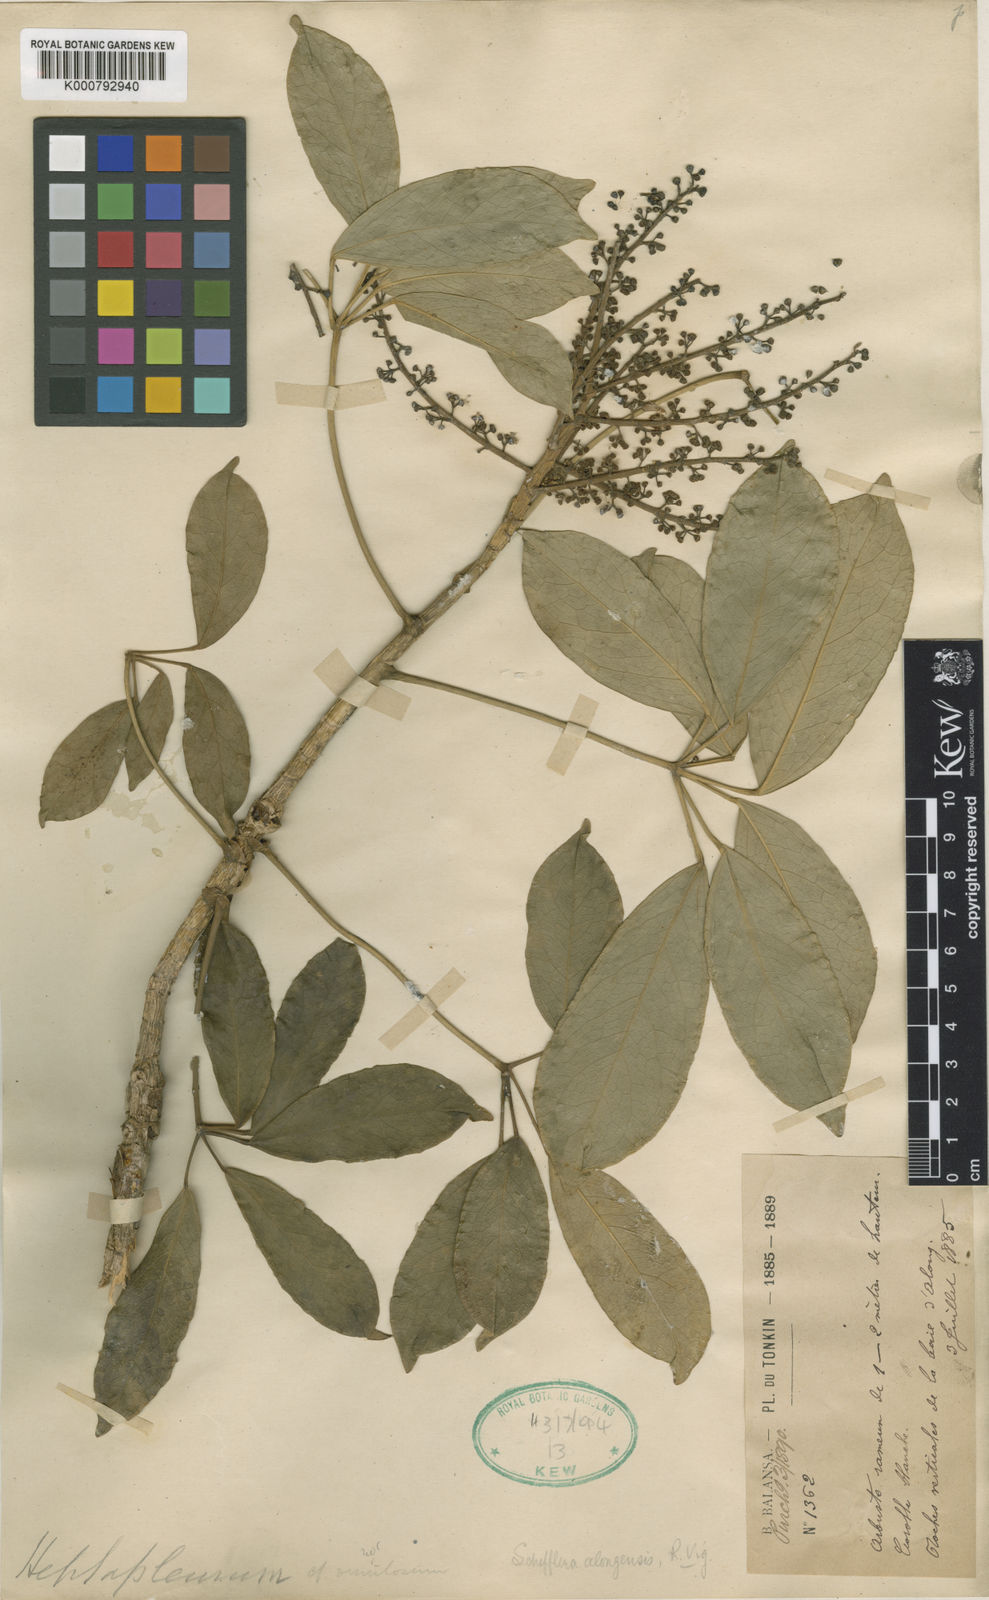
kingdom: Plantae
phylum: Tracheophyta
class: Magnoliopsida
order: Apiales
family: Araliaceae
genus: Heptapleurum
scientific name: Heptapleurum alongense
